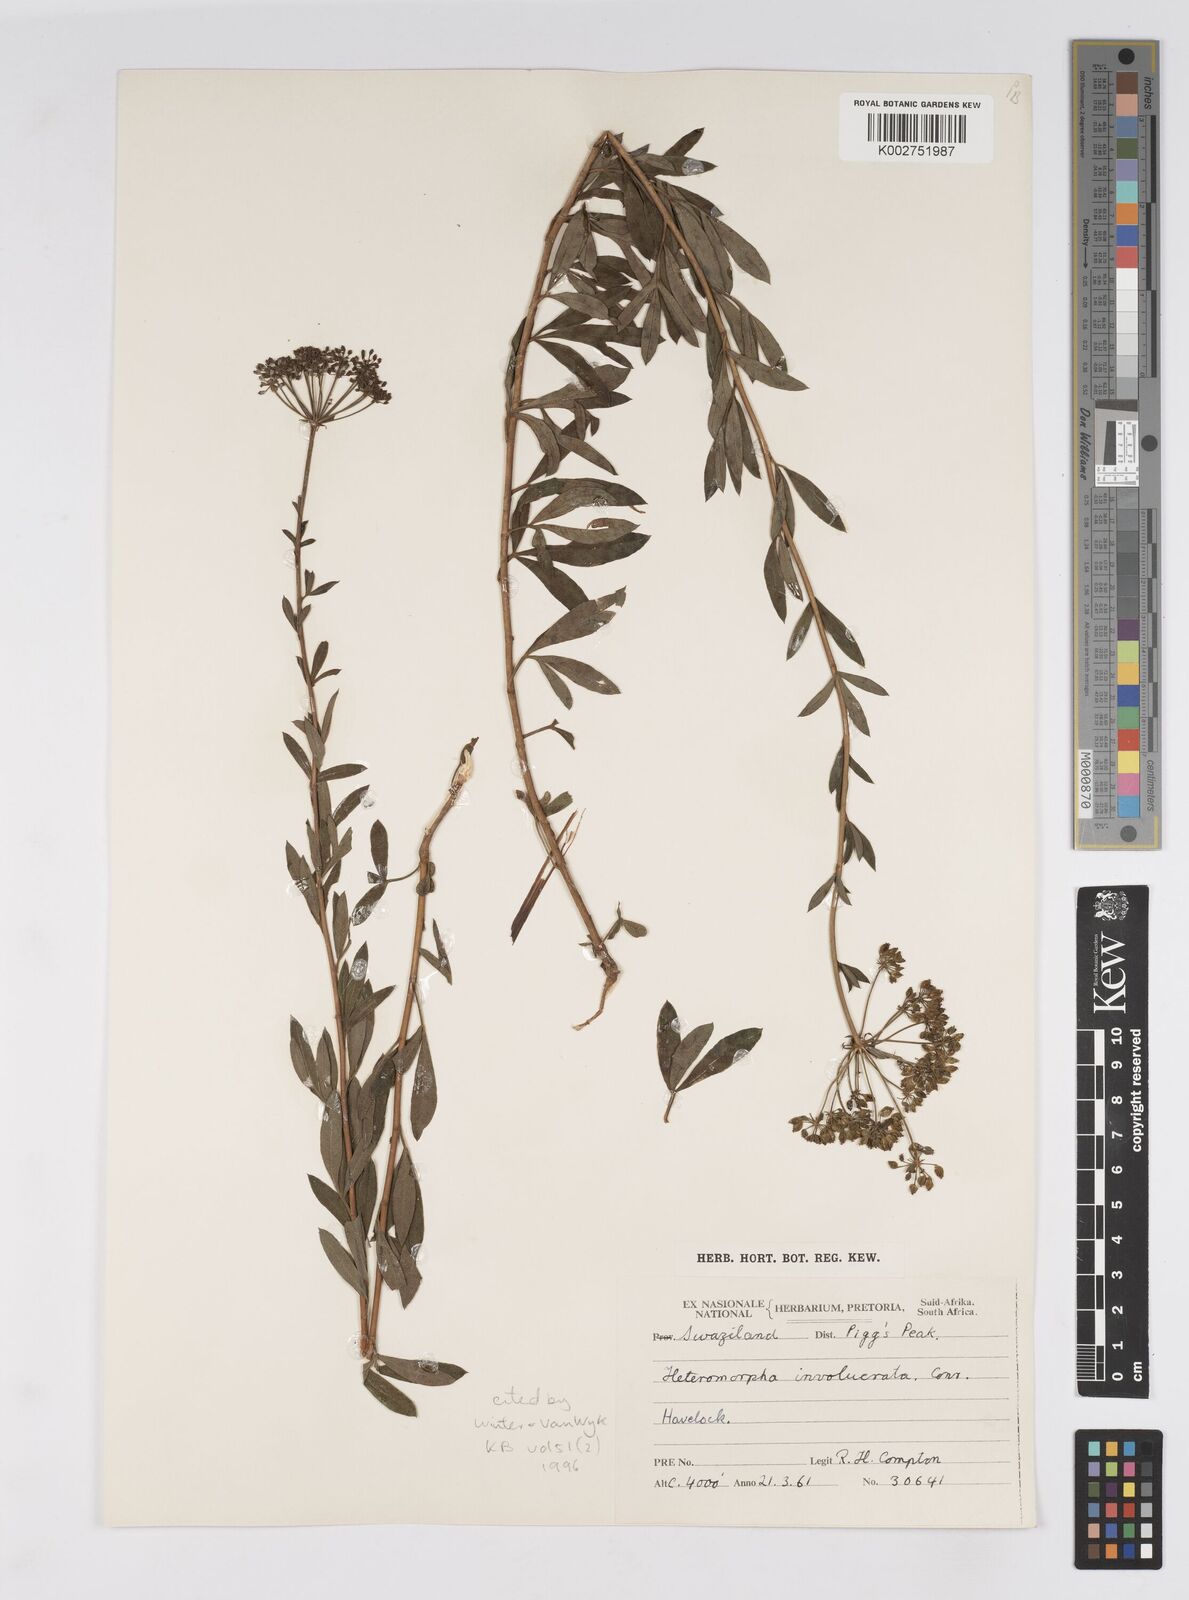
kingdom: Plantae
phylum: Tracheophyta
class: Magnoliopsida
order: Apiales
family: Apiaceae
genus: Heteromorpha
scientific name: Heteromorpha involucrata
